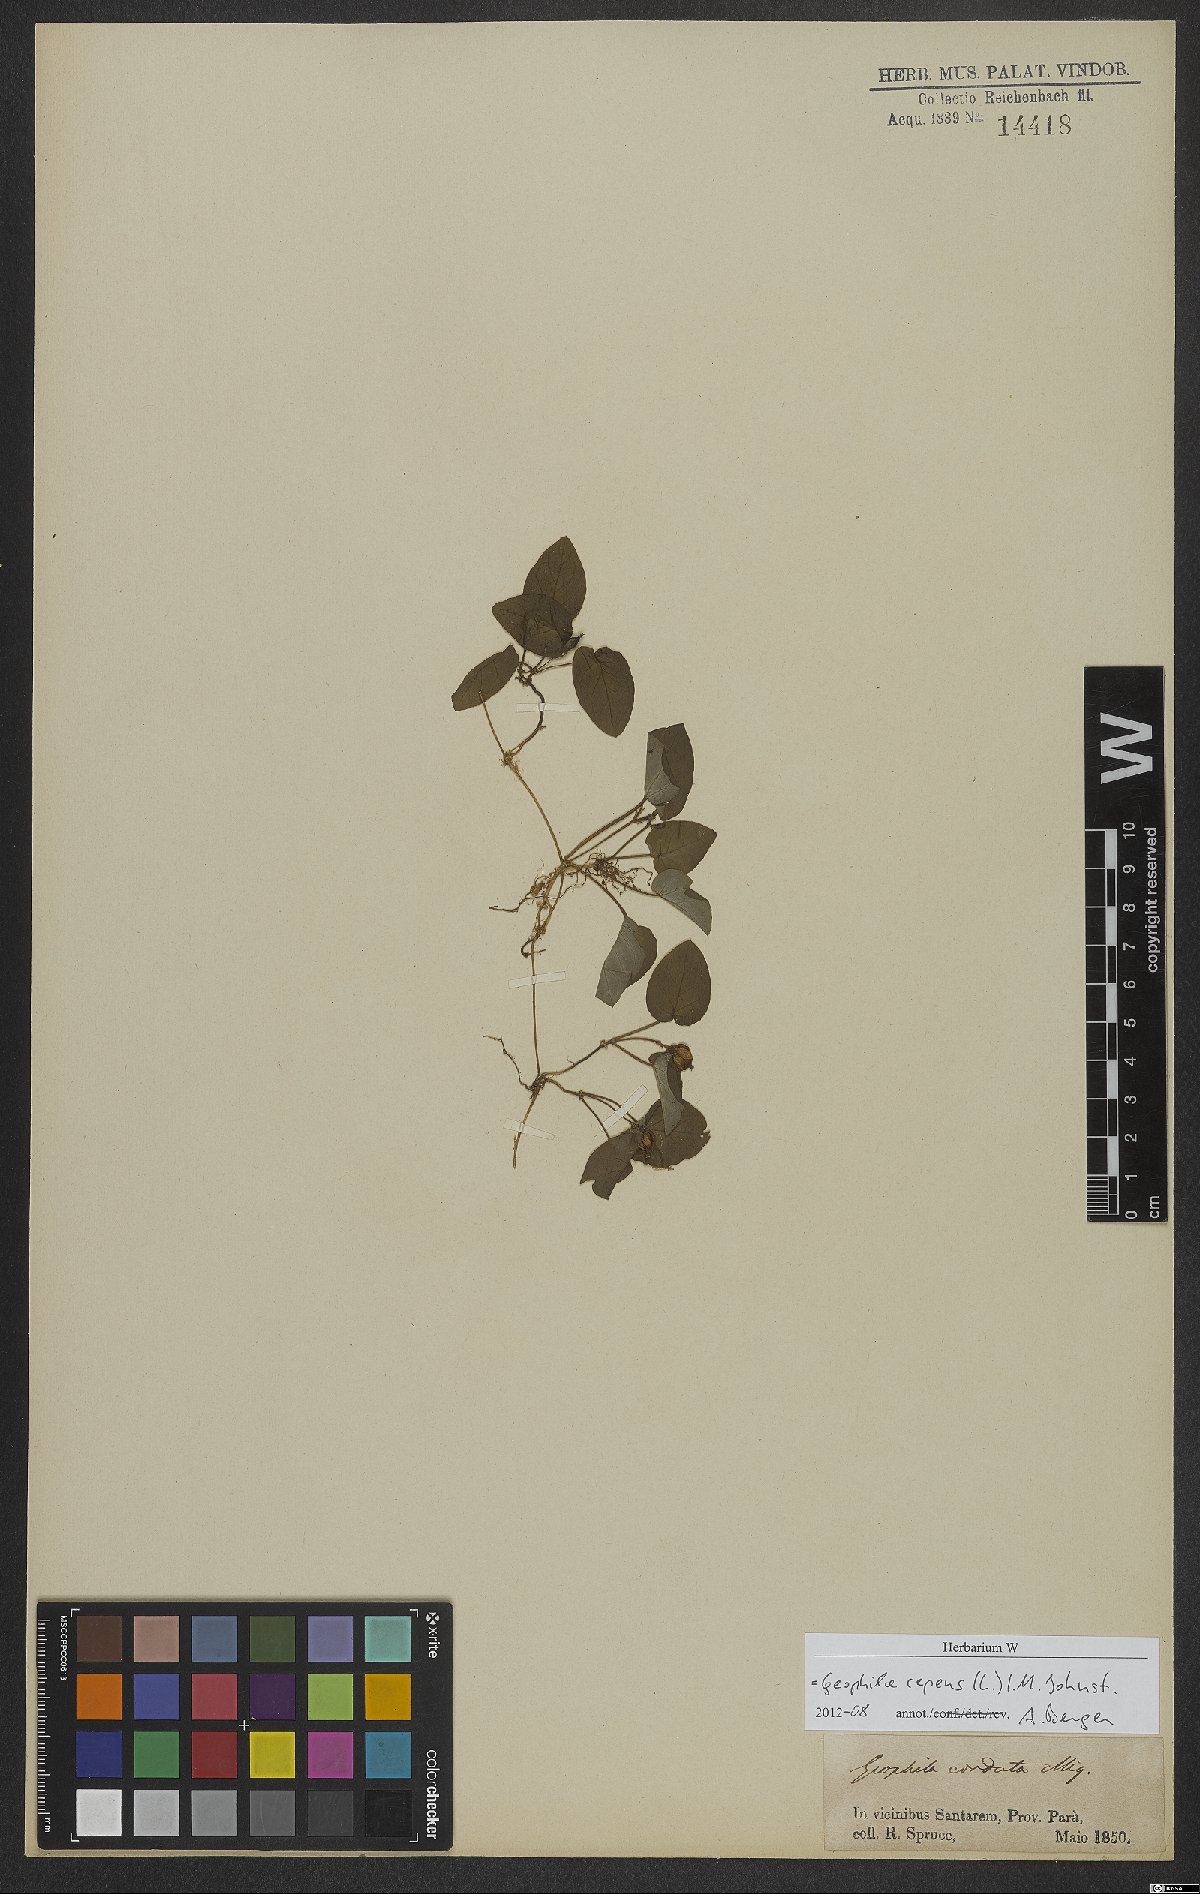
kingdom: Plantae
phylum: Tracheophyta
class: Magnoliopsida
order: Gentianales
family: Rubiaceae
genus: Geophila
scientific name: Geophila repens
